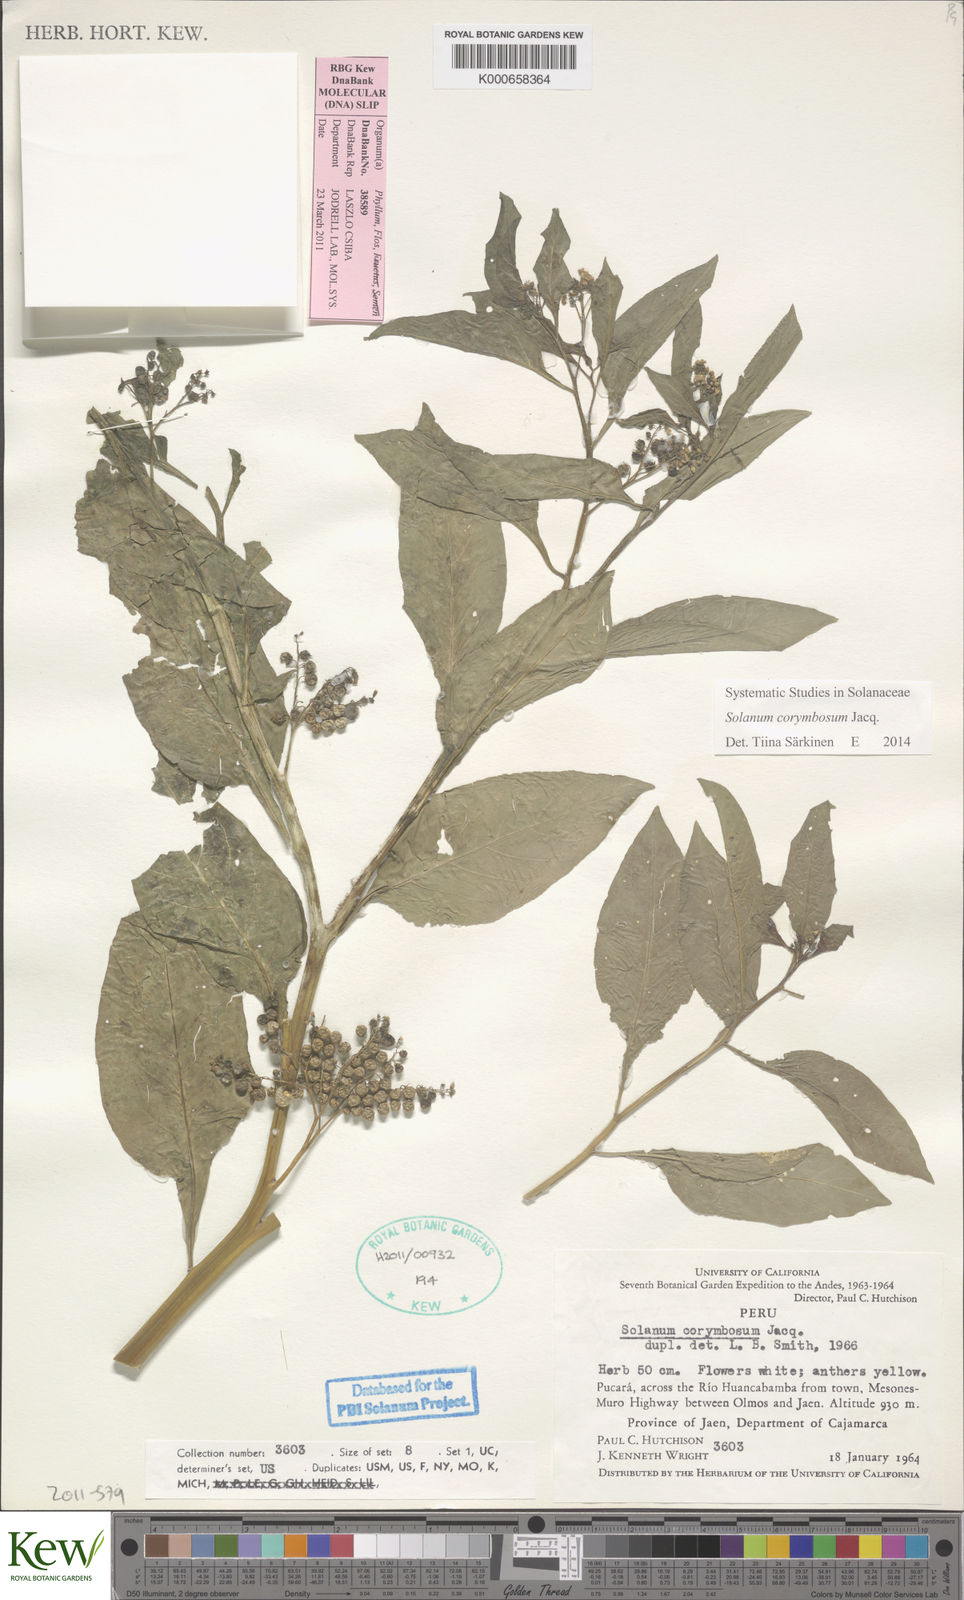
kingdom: Plantae
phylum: Tracheophyta
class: Magnoliopsida
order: Solanales
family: Solanaceae
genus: Solanum
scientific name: Solanum corymbosum
